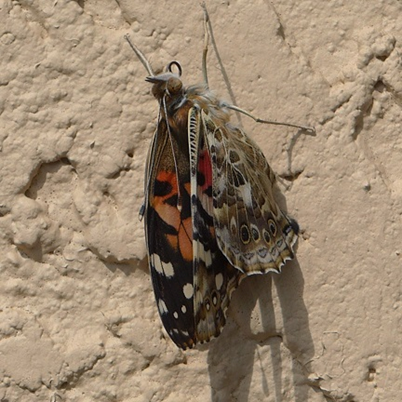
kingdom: Animalia
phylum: Arthropoda
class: Insecta
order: Lepidoptera
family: Nymphalidae
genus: Vanessa
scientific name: Vanessa cardui
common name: Painted Lady
